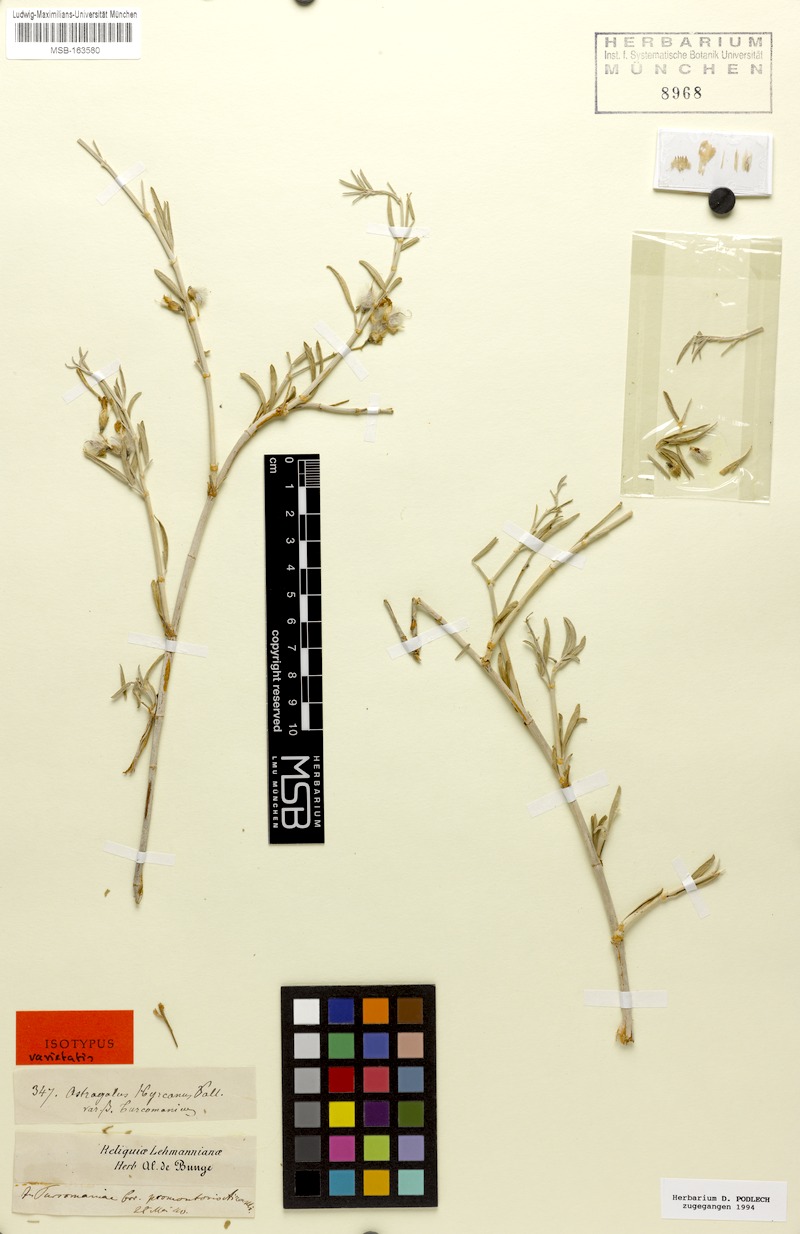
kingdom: Plantae
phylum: Tracheophyta
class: Magnoliopsida
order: Fabales
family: Fabaceae
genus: Astragalus
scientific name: Astragalus turcomanicus
